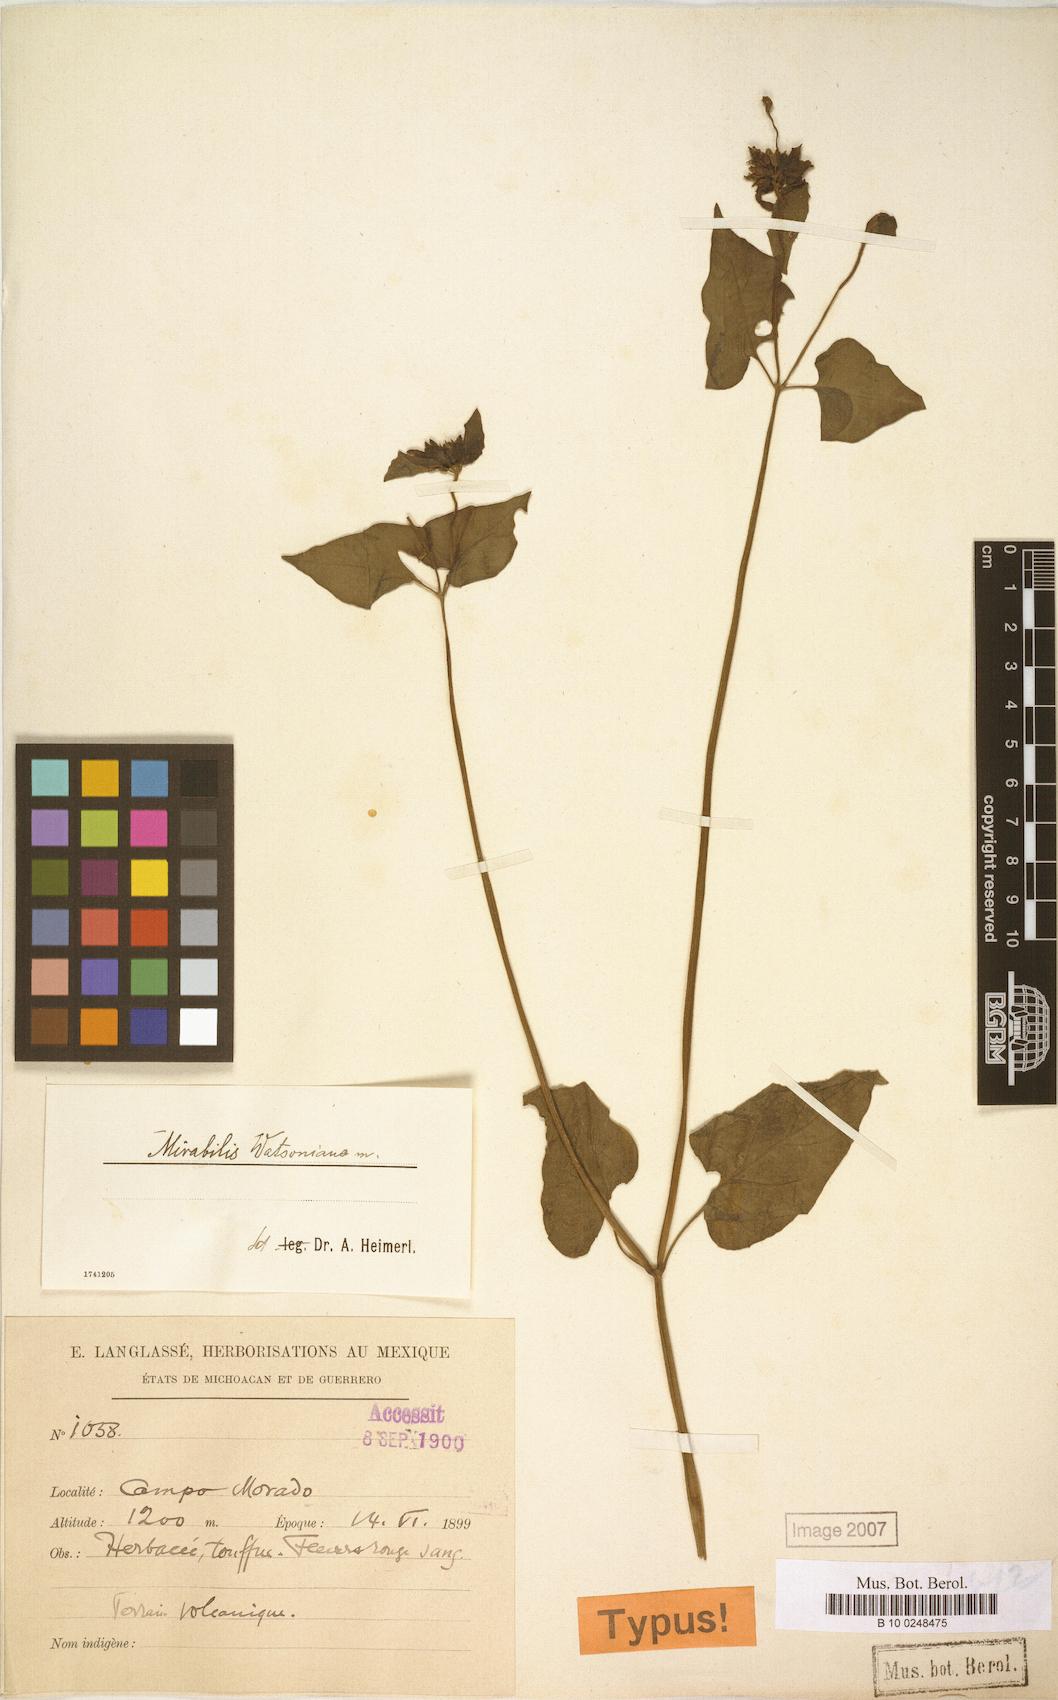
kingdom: Plantae
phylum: Tracheophyta
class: Magnoliopsida
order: Caryophyllales
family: Nyctaginaceae
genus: Mirabilis
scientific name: Mirabilis watsoniana
